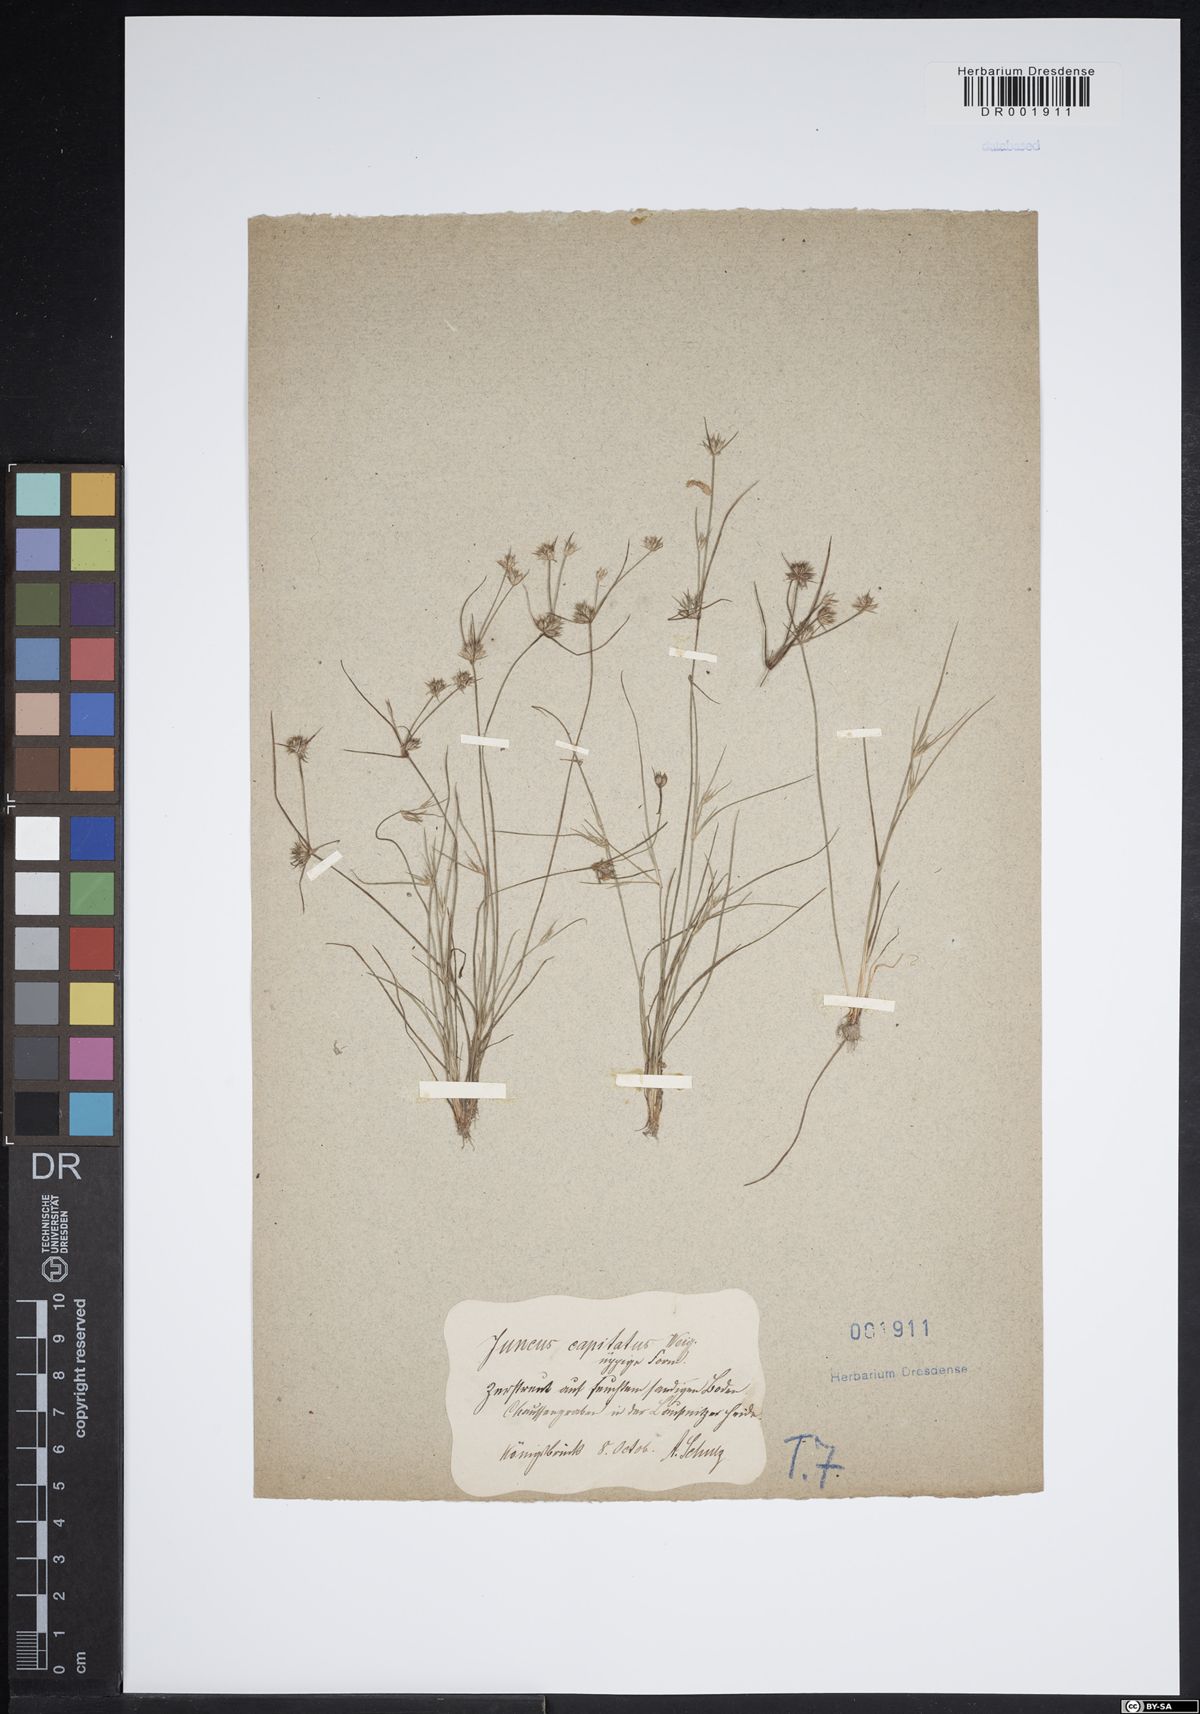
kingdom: Plantae
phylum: Tracheophyta
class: Liliopsida
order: Poales
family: Juncaceae
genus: Juncus
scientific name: Juncus capitatus
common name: Dwarf rush
